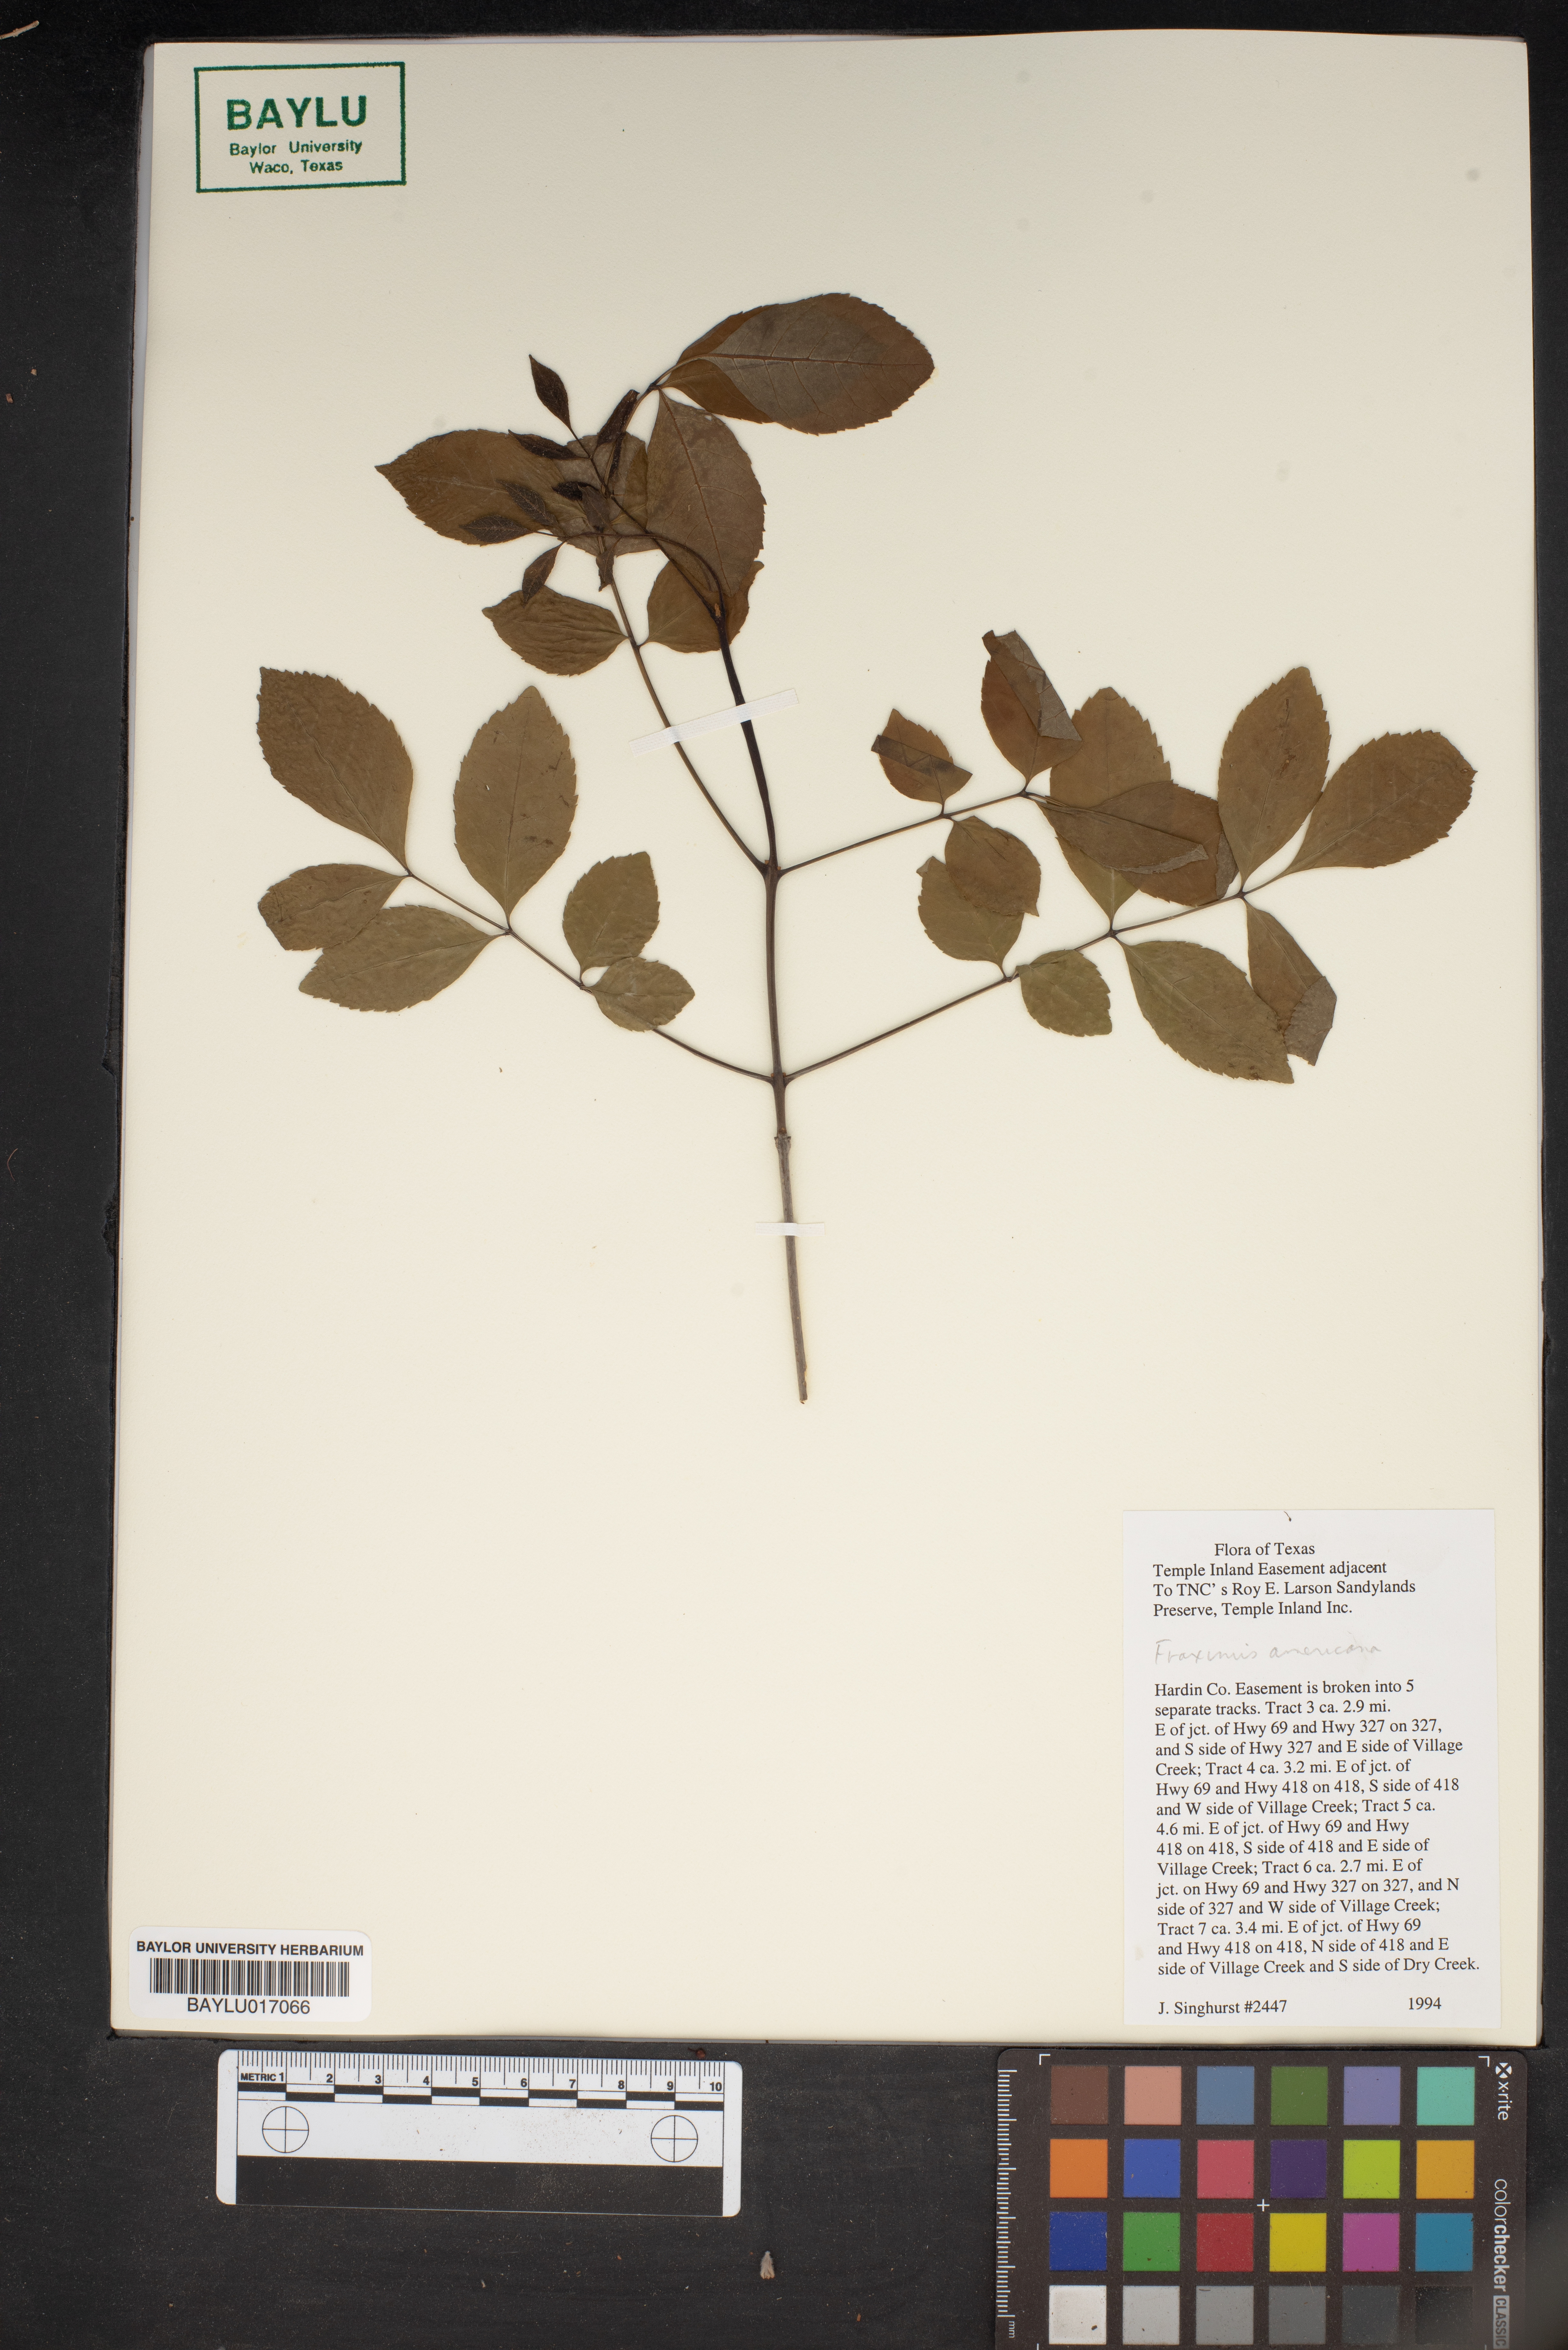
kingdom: Plantae
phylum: Tracheophyta
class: Magnoliopsida
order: Lamiales
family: Oleaceae
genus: Fraxinus
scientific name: Fraxinus americana
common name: White ash
